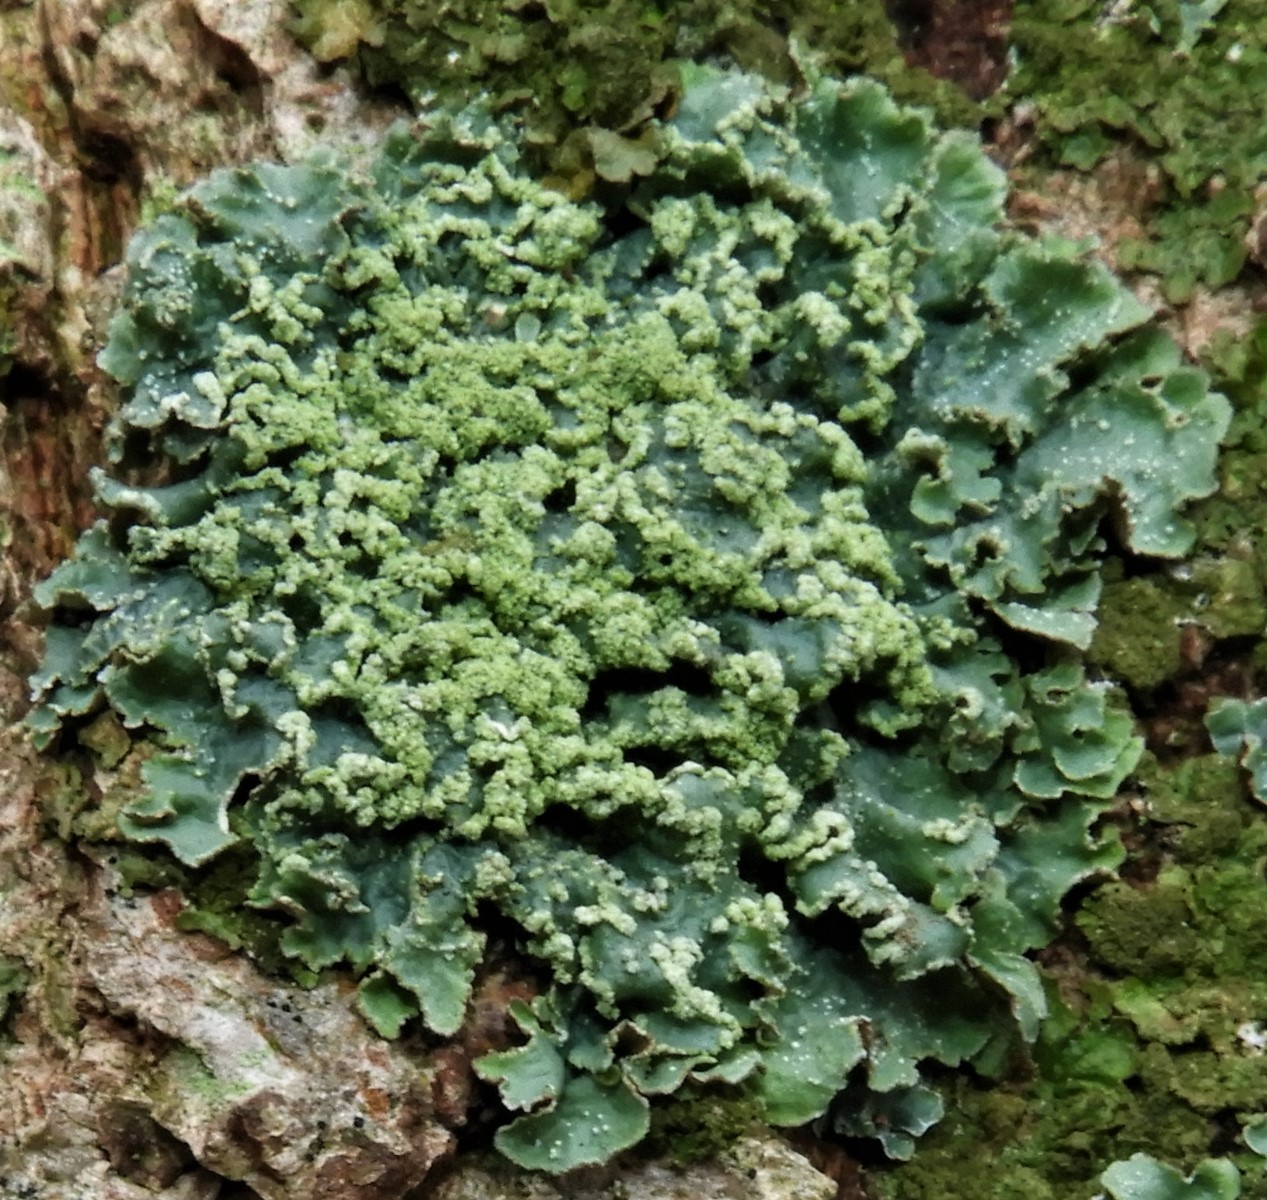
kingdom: Fungi
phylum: Ascomycota
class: Lecanoromycetes
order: Lecanorales
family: Parmeliaceae
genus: Punctelia
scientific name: Punctelia subrudecta
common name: punkt-skållav
